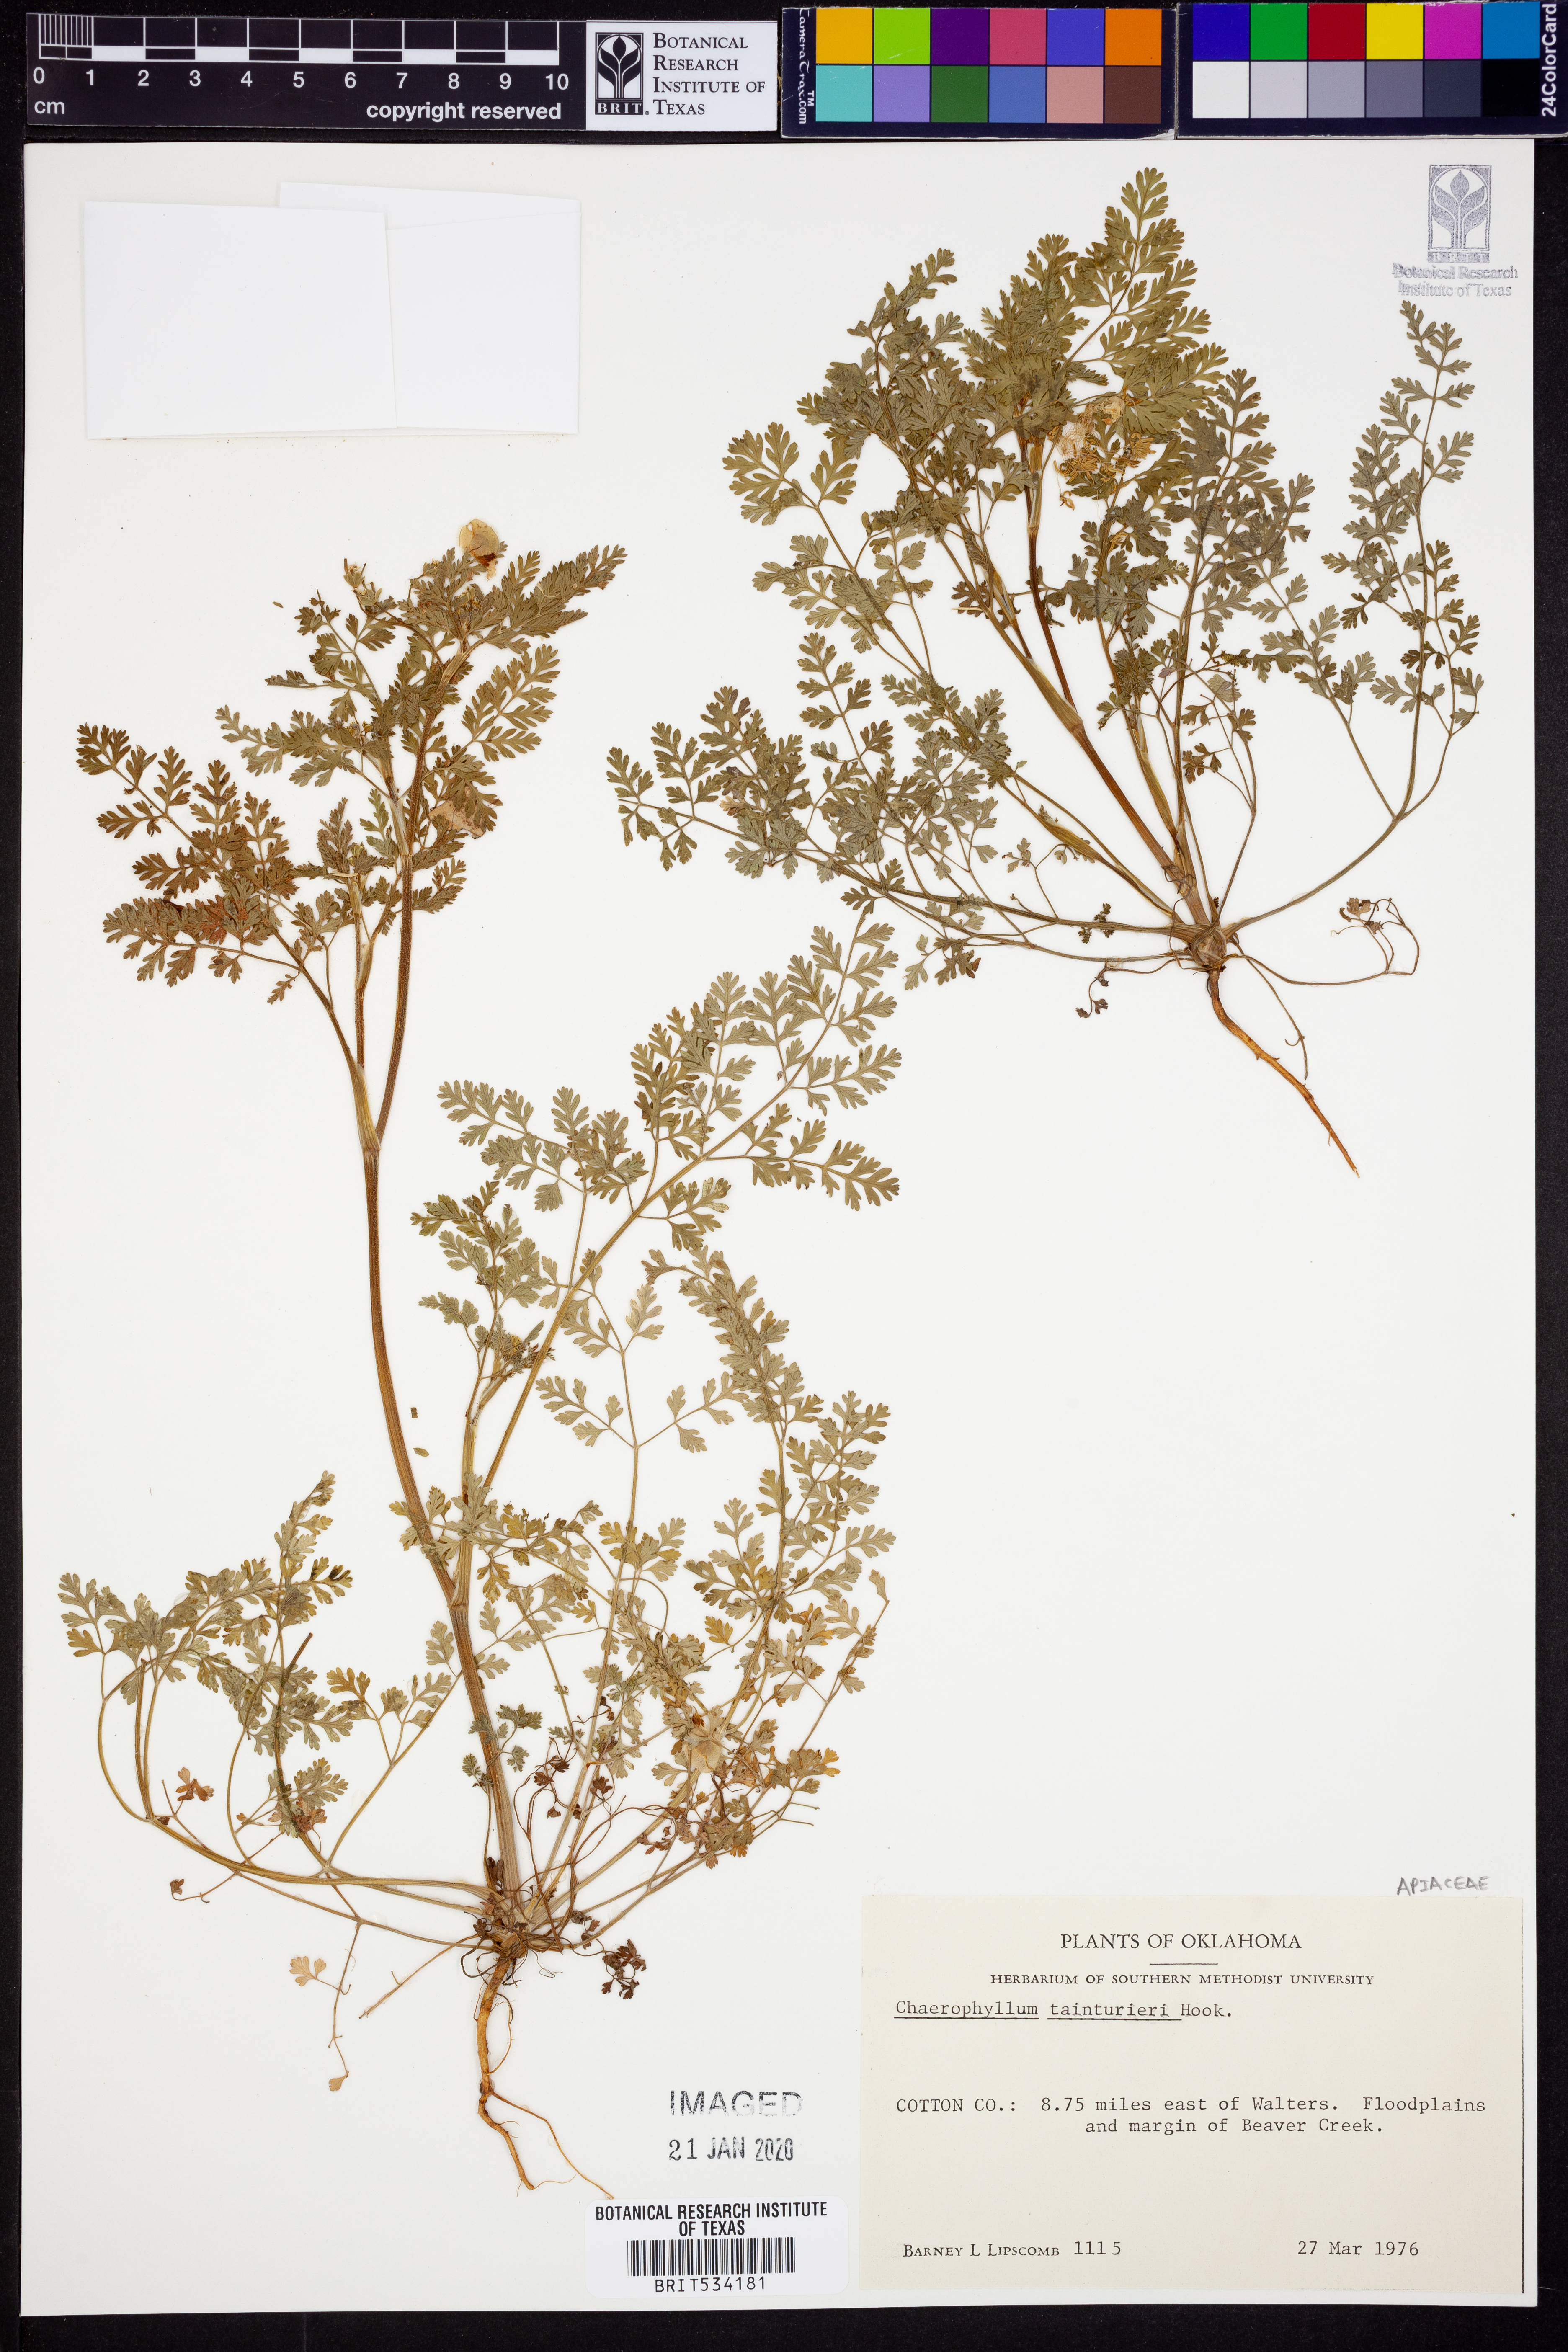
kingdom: Plantae
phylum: Tracheophyta
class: Magnoliopsida
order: Apiales
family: Apiaceae
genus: Chaerophyllum
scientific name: Chaerophyllum tainturieri
